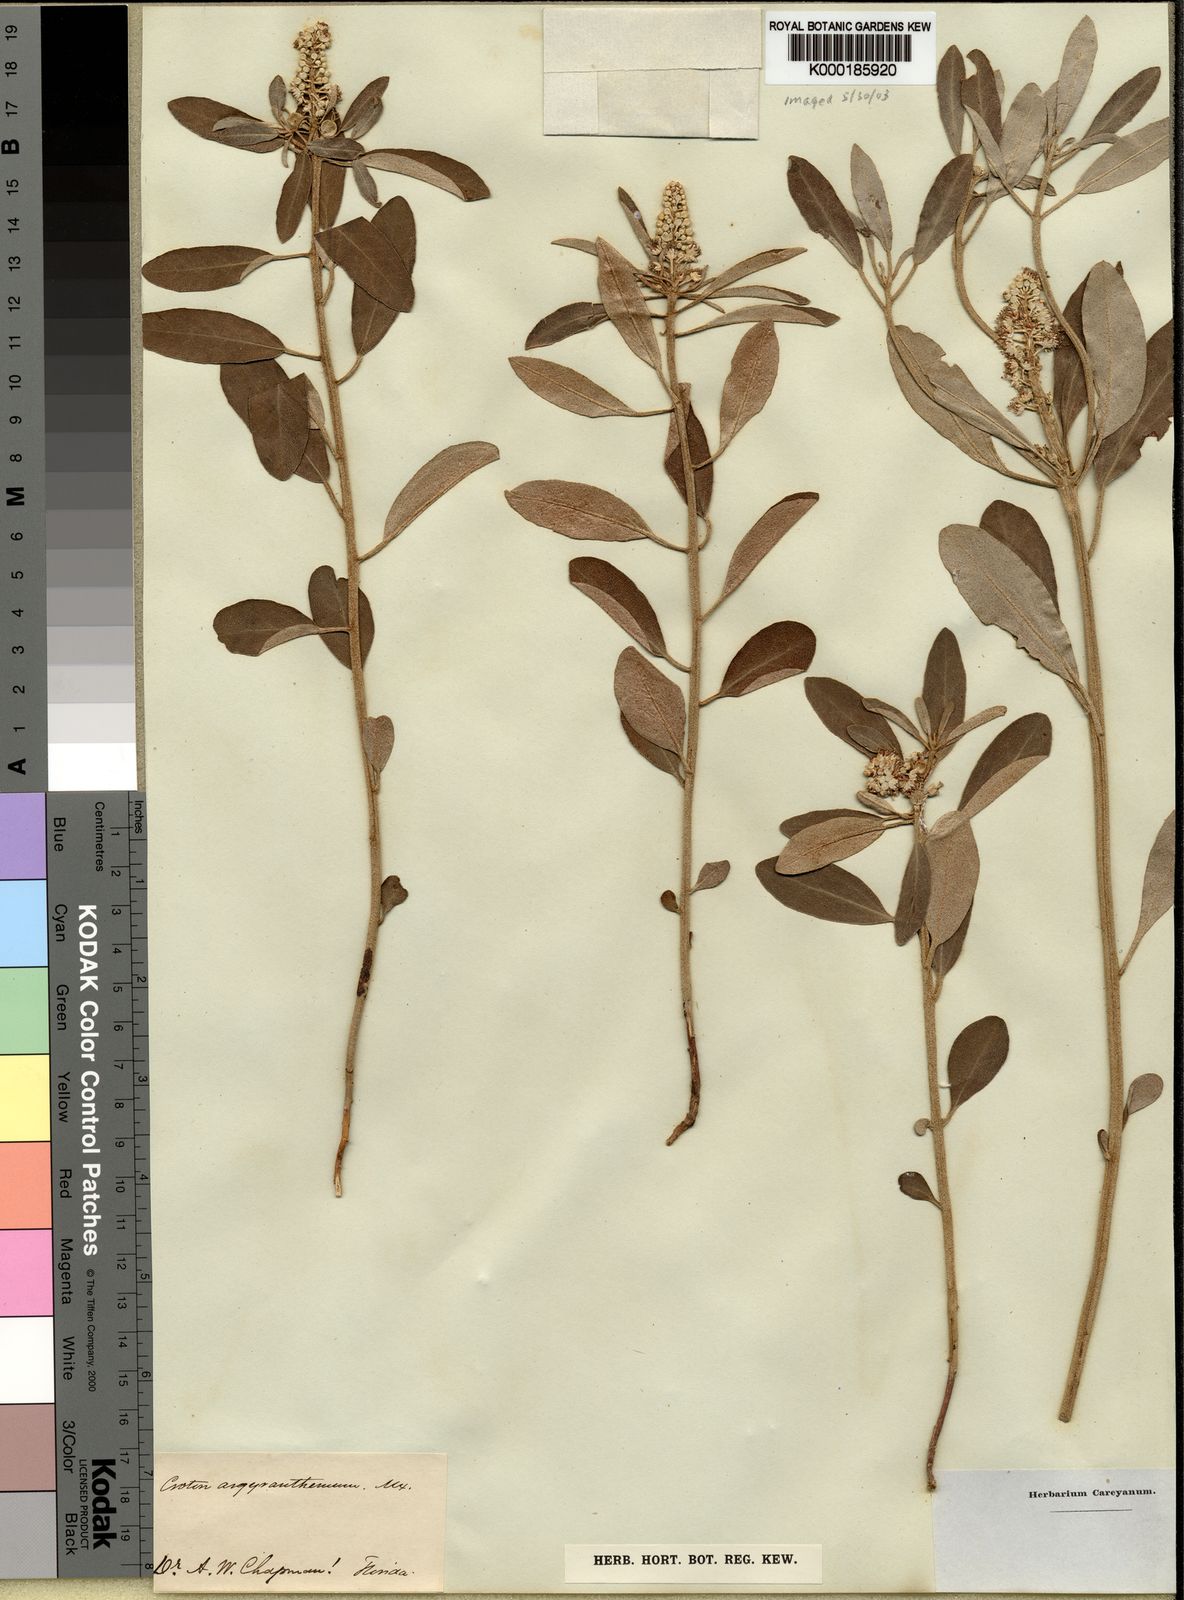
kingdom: Plantae
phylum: Tracheophyta
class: Magnoliopsida
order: Malpighiales
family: Euphorbiaceae
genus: Croton
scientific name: Croton argyranthemus
